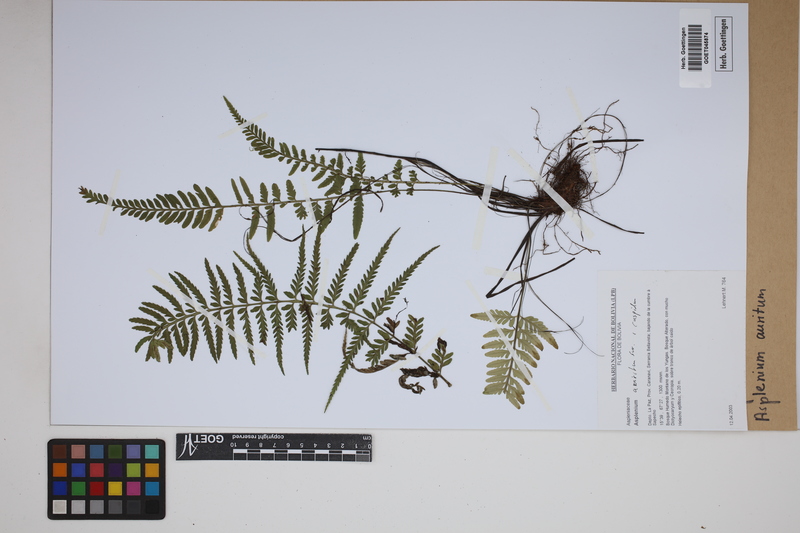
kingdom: Plantae
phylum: Tracheophyta
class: Polypodiopsida
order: Polypodiales
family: Aspleniaceae
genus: Asplenium
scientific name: Asplenium auritum
